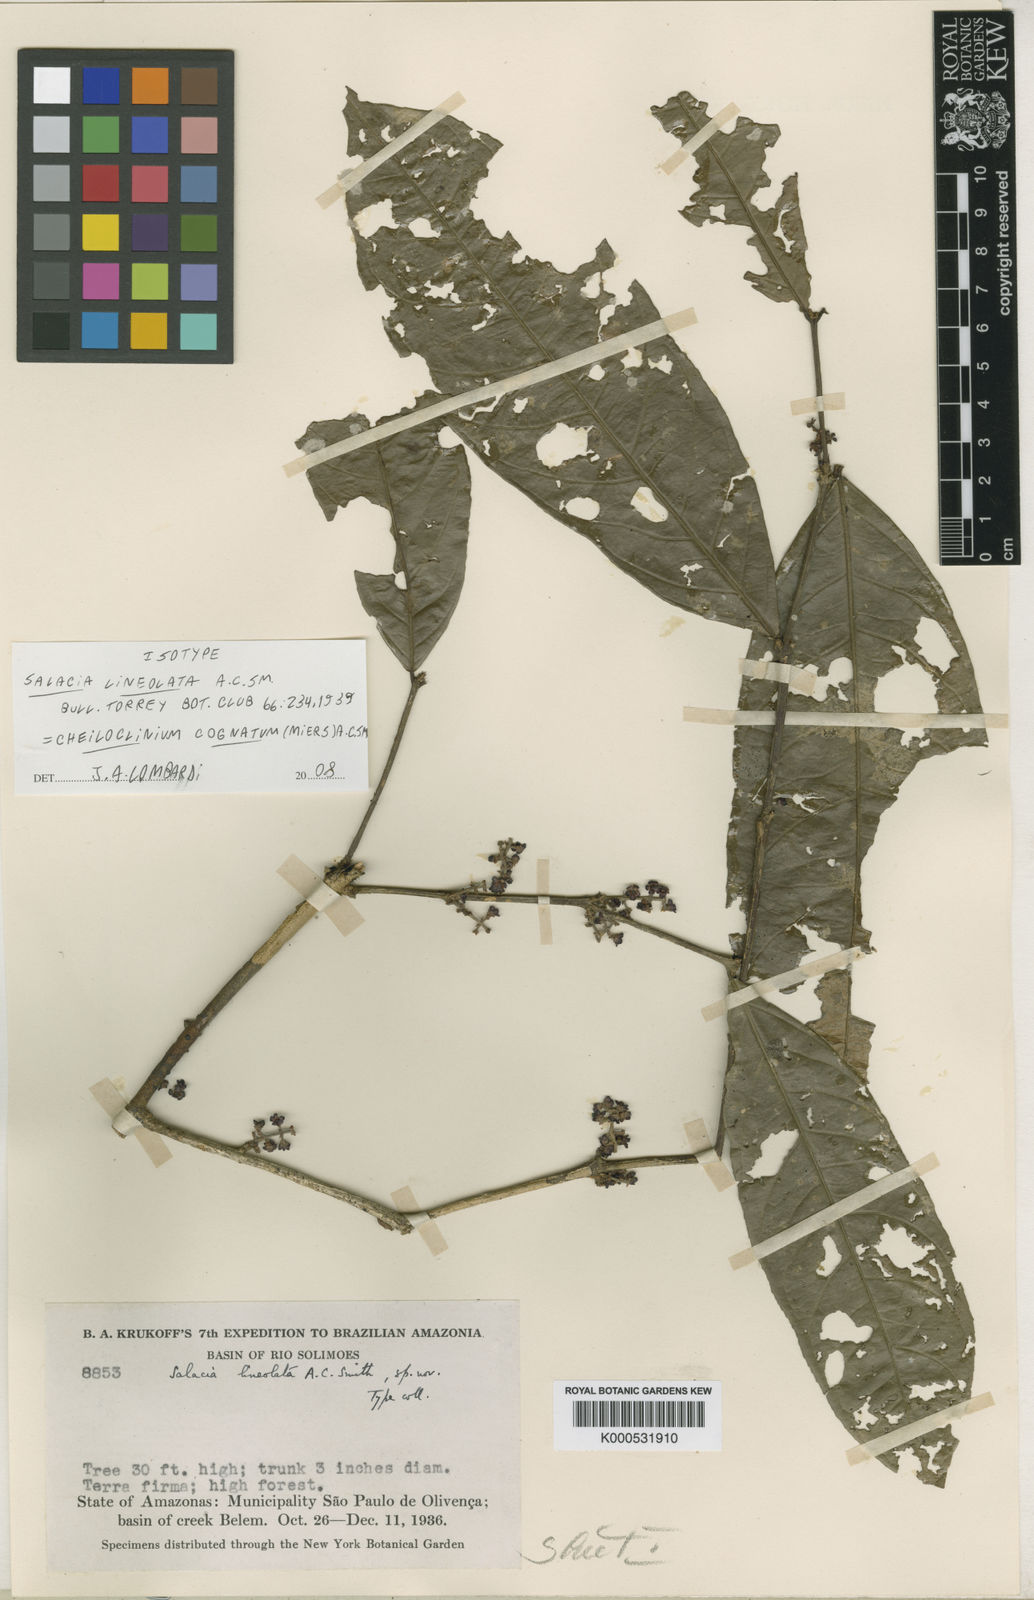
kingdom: Plantae
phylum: Tracheophyta
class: Magnoliopsida
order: Celastrales
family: Celastraceae
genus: Cheiloclinium
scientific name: Cheiloclinium cognatum
